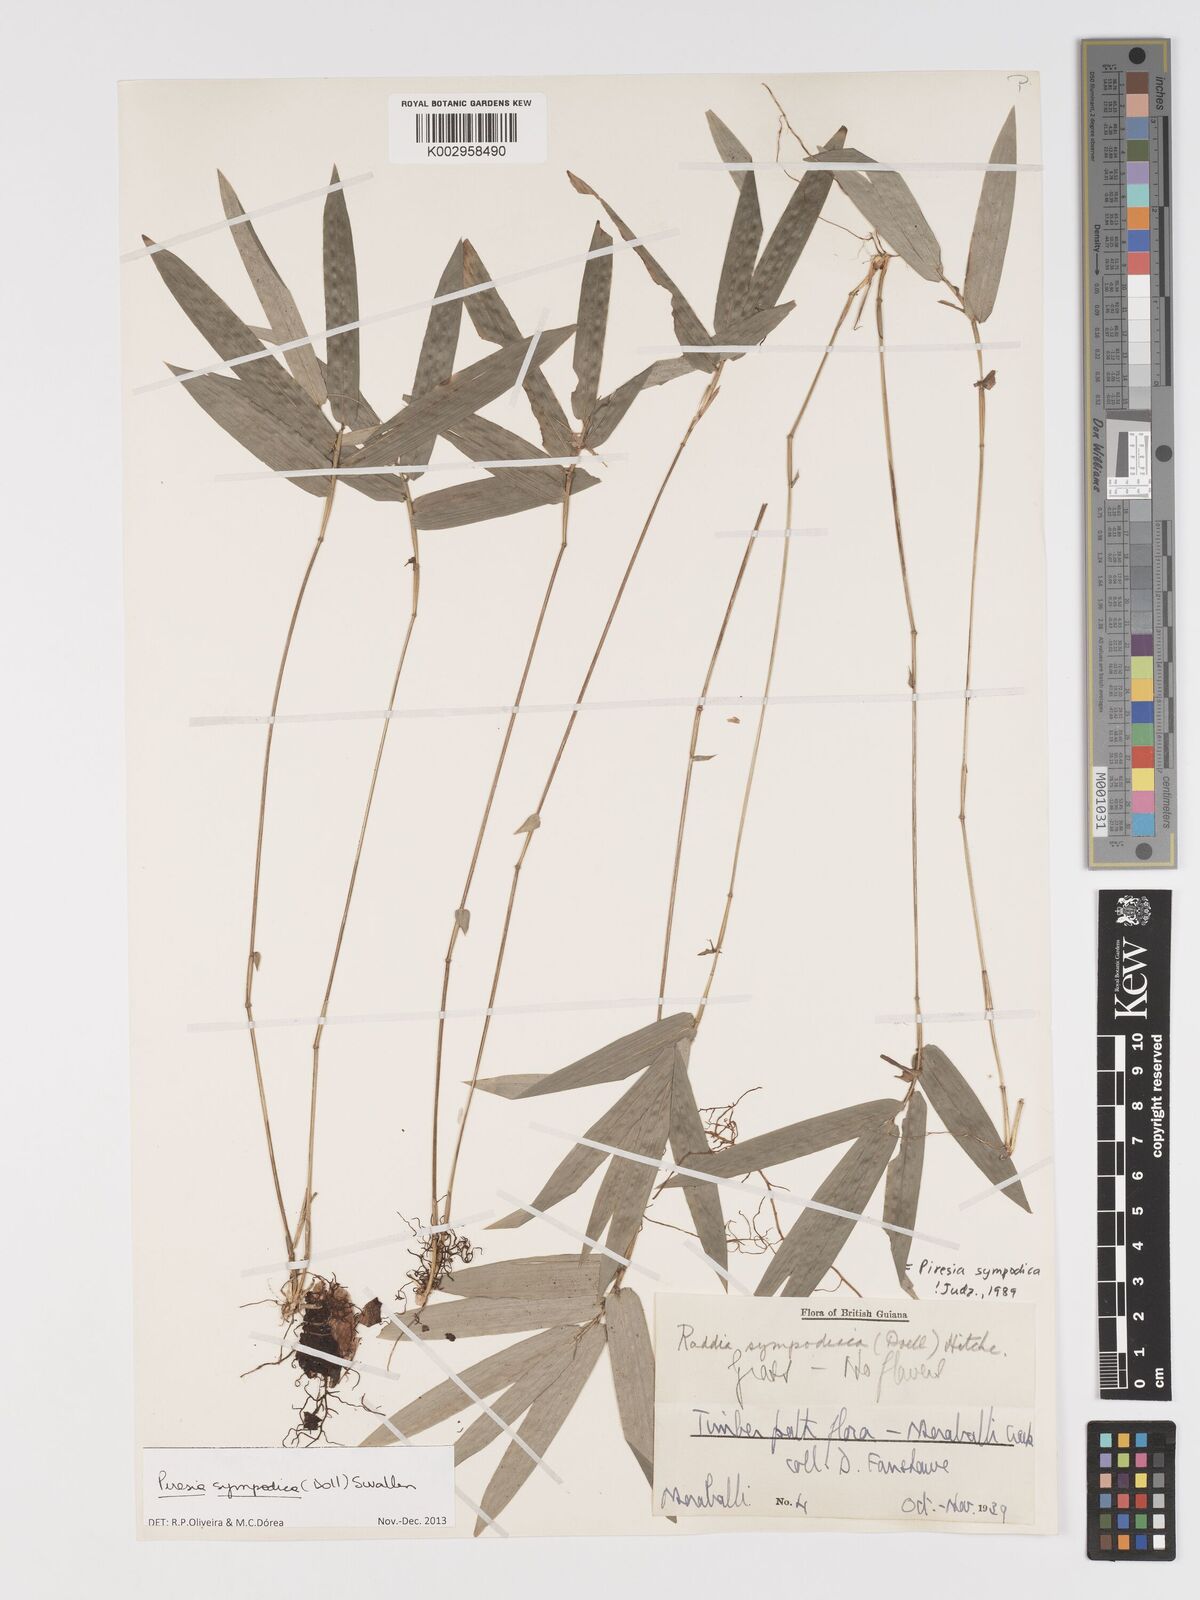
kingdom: Plantae
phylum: Tracheophyta
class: Liliopsida
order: Poales
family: Poaceae
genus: Piresia
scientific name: Piresia sympodica
